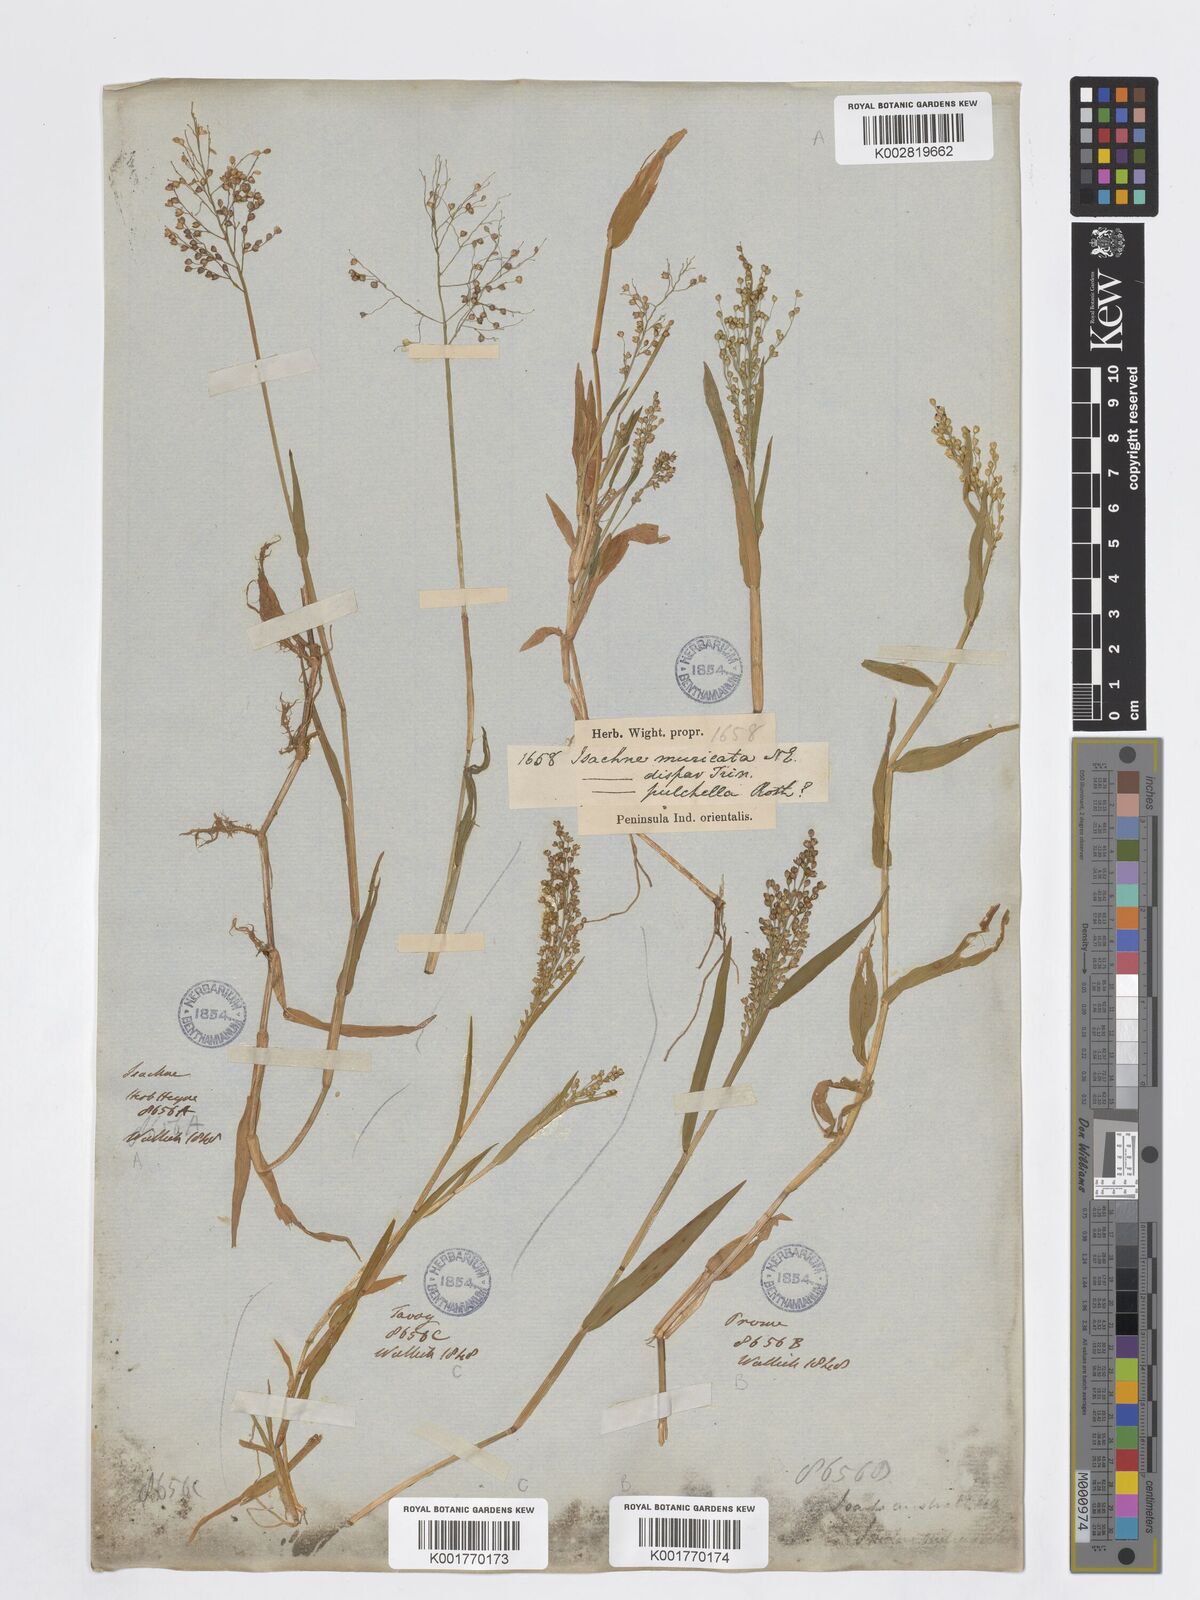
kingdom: Plantae
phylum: Tracheophyta
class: Liliopsida
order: Poales
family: Poaceae
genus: Isachne
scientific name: Isachne
